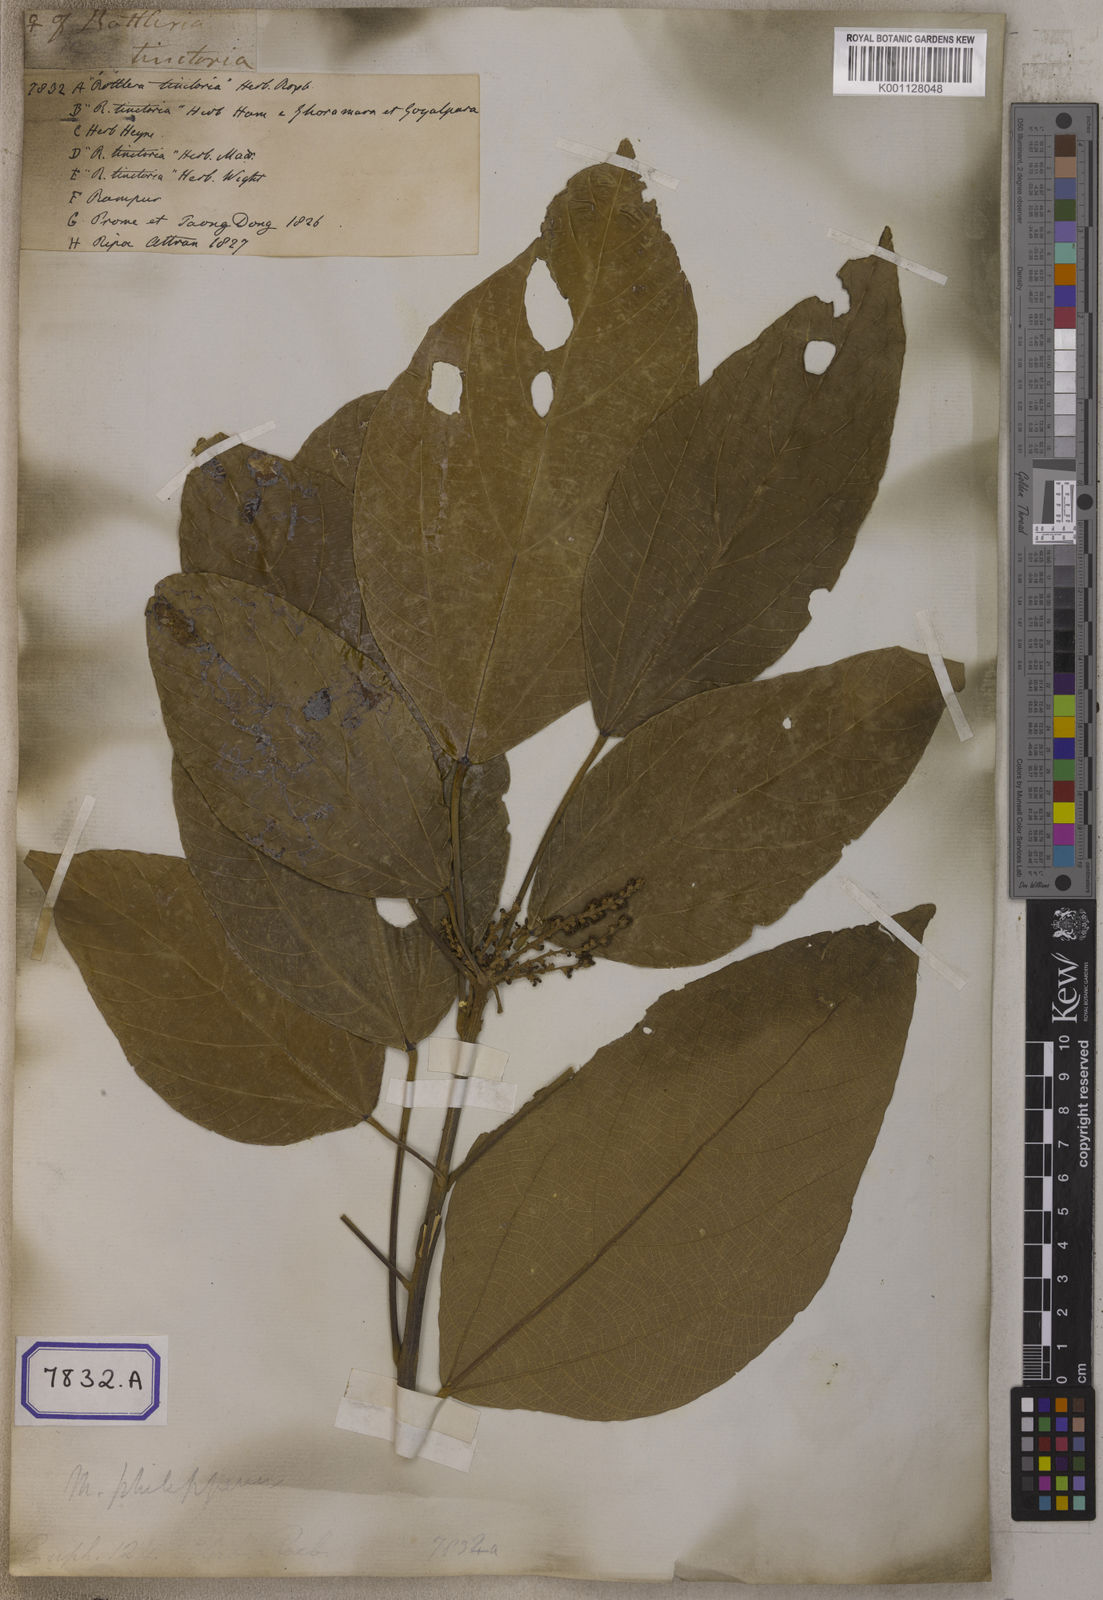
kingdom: Plantae
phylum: Tracheophyta
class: Magnoliopsida
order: Malpighiales
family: Euphorbiaceae
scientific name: Euphorbiaceae
